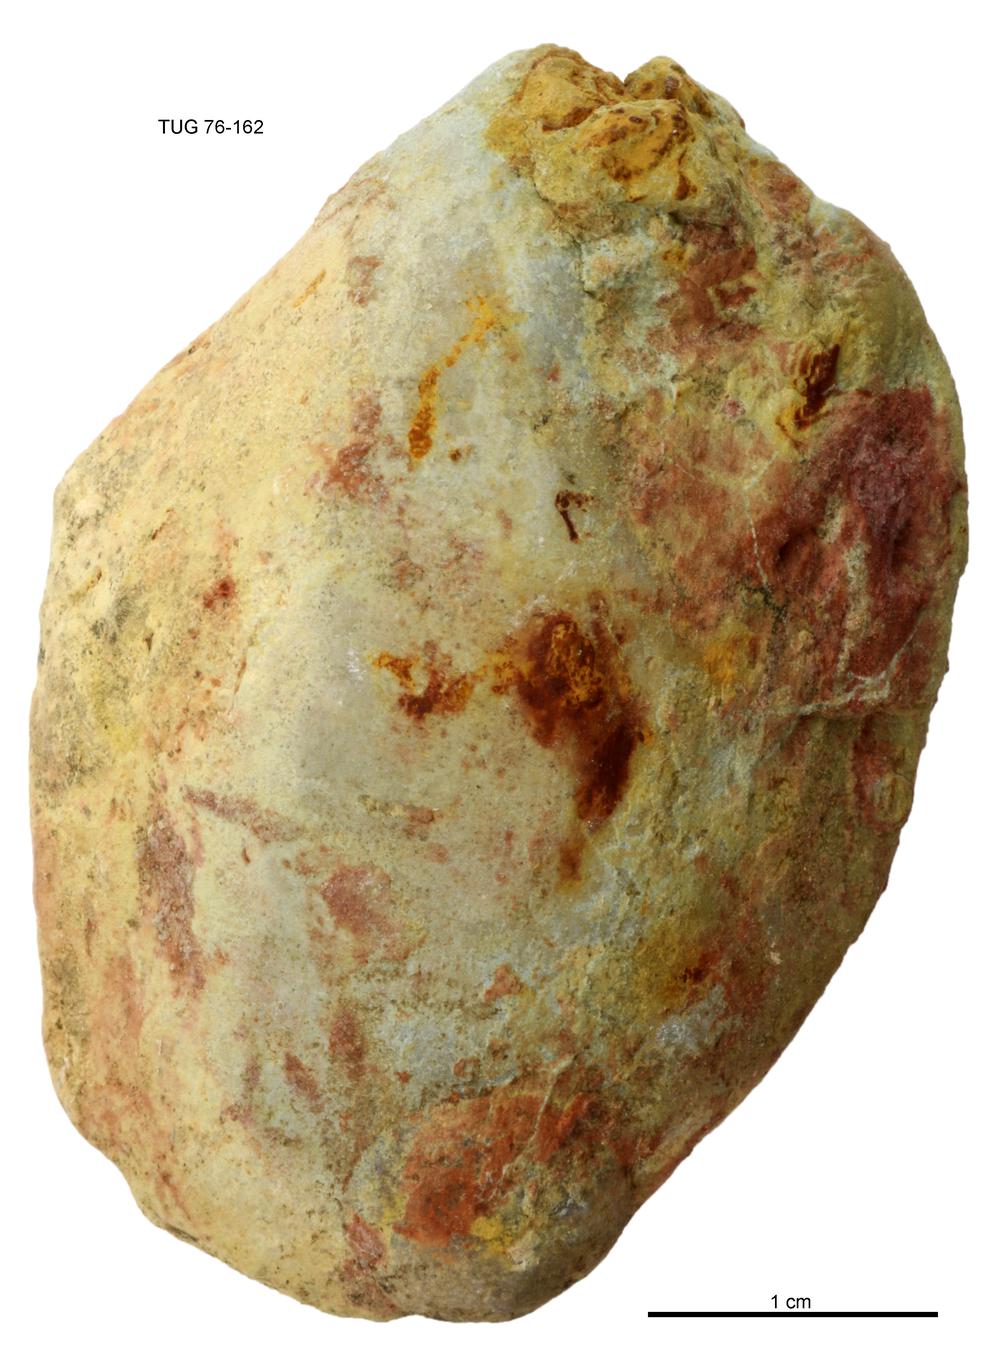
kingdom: Animalia
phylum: Mollusca
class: Bivalvia
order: Cyrtodontida
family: Cyrtodontidae
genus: Cypricardites
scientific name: Cypricardites
